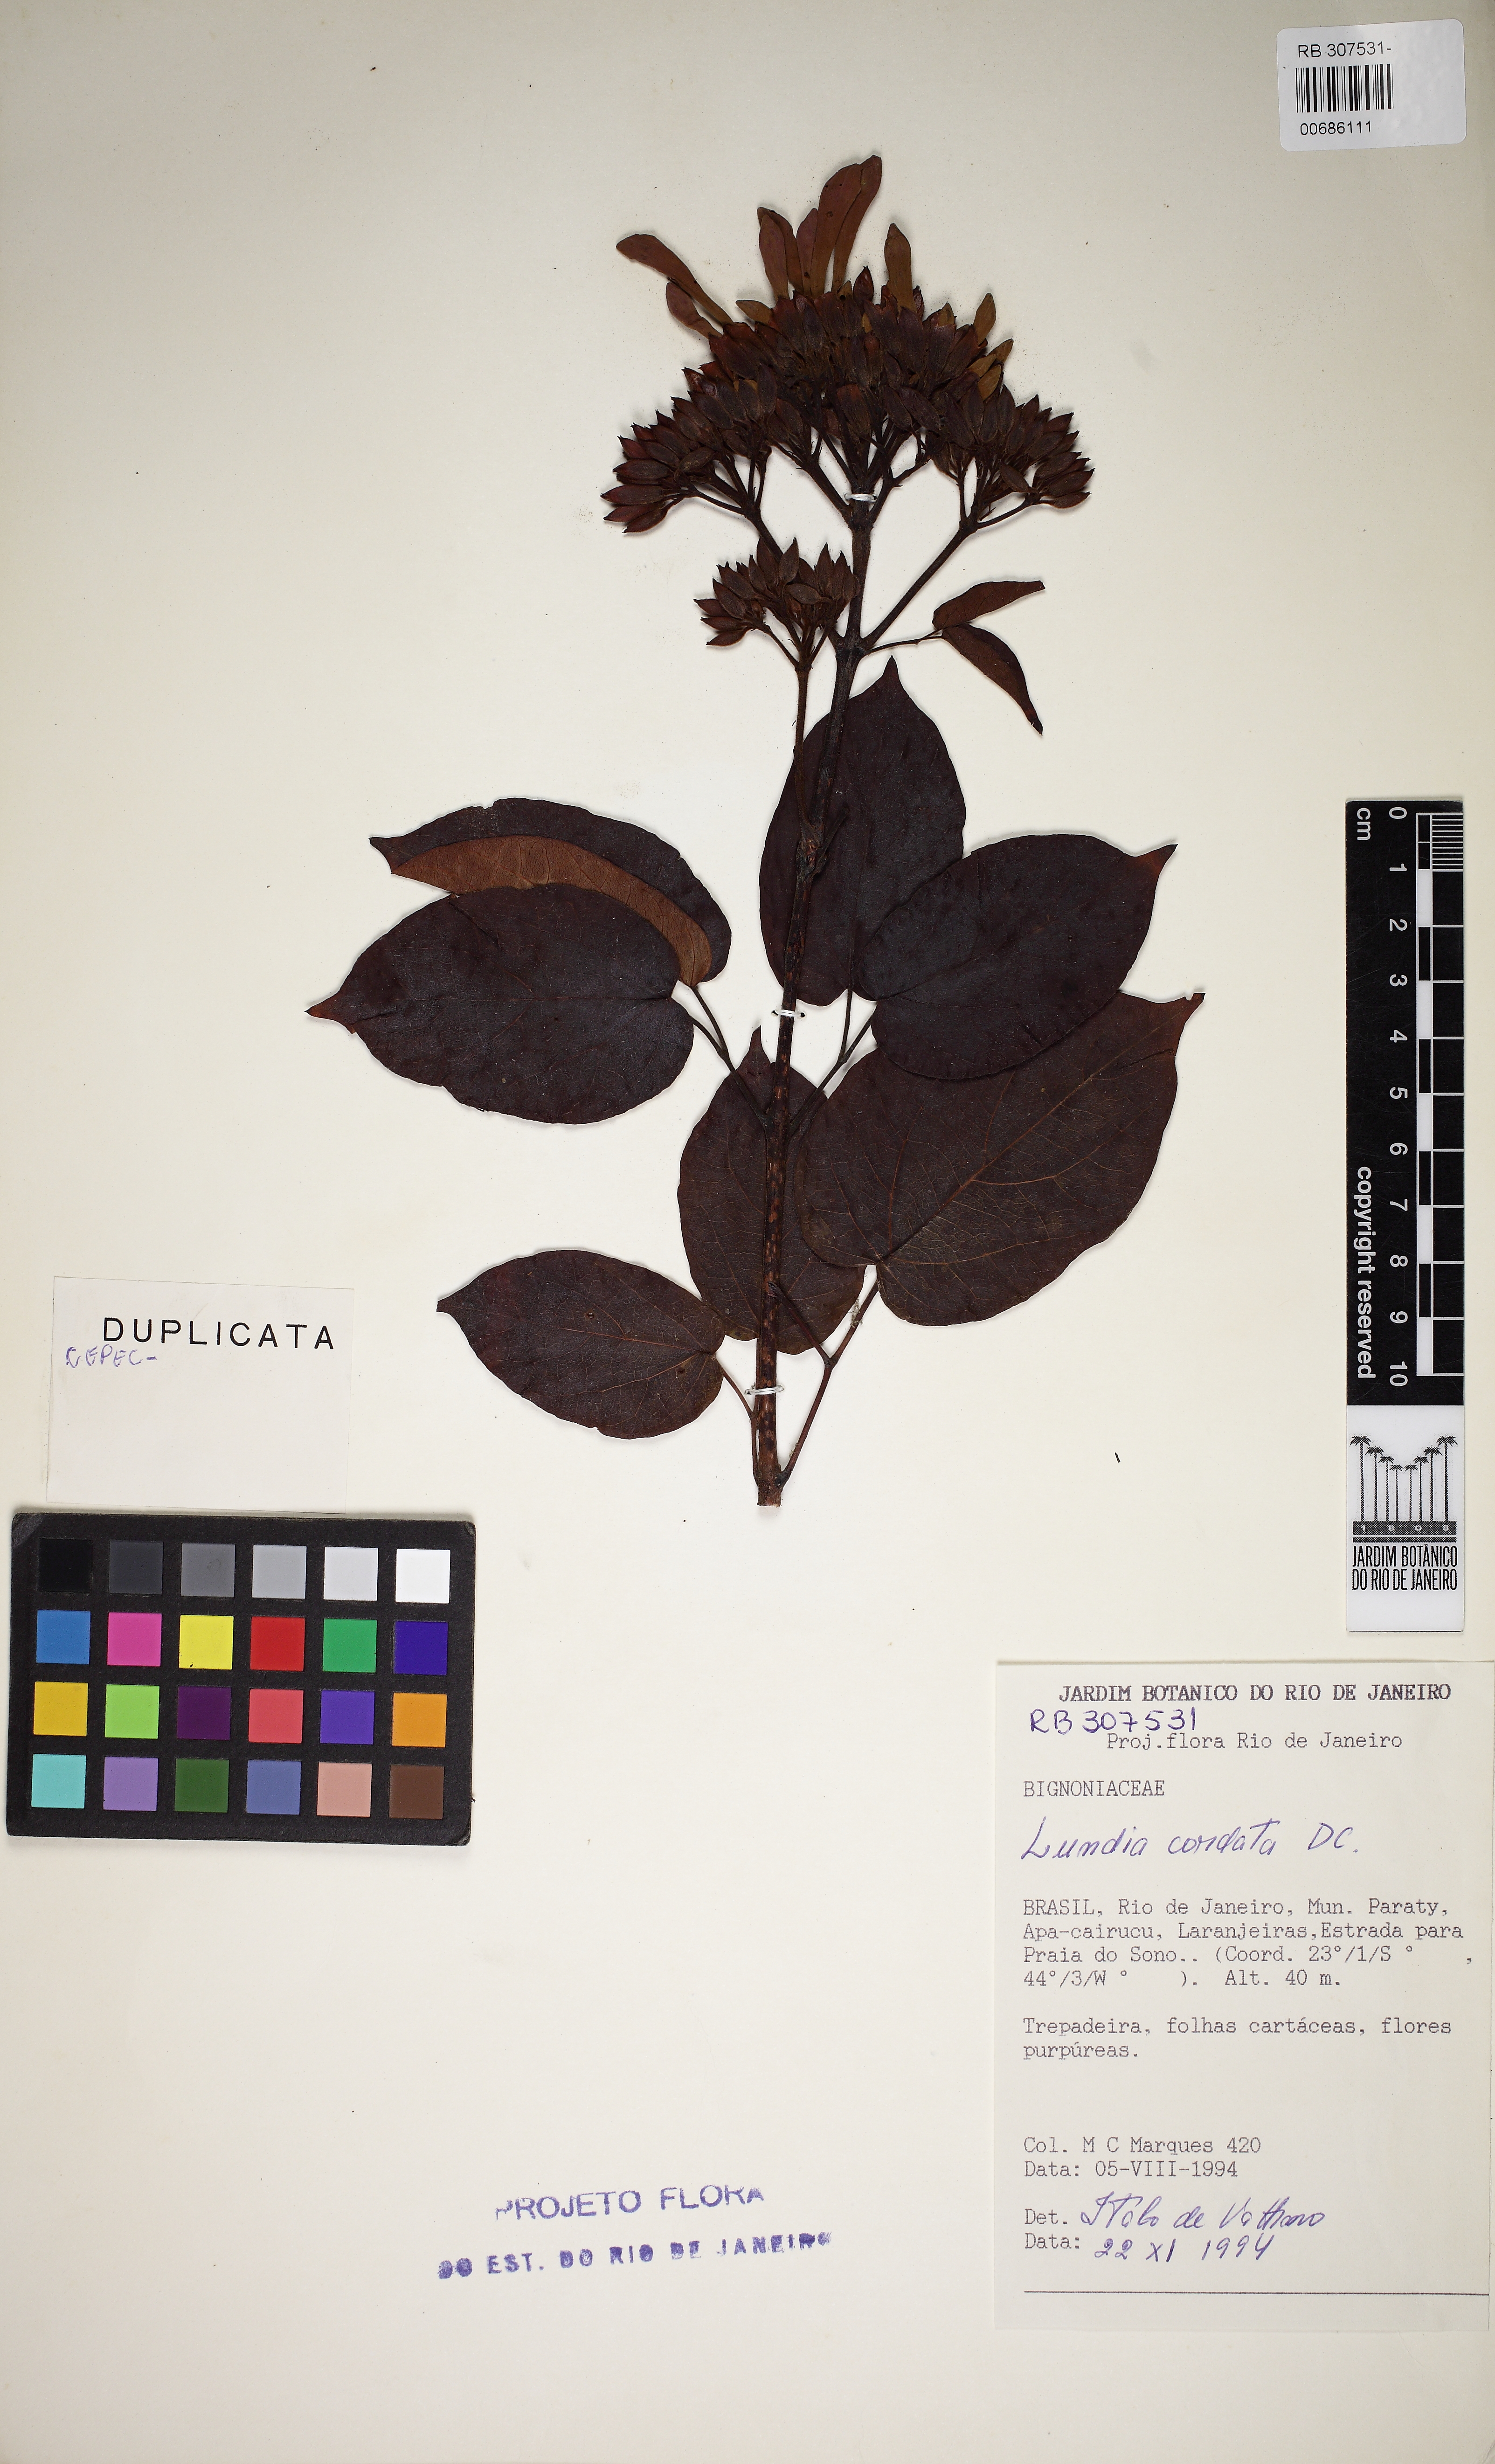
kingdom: Plantae
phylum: Tracheophyta
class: Magnoliopsida
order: Lamiales
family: Bignoniaceae
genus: Lundia
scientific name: Lundia longa
